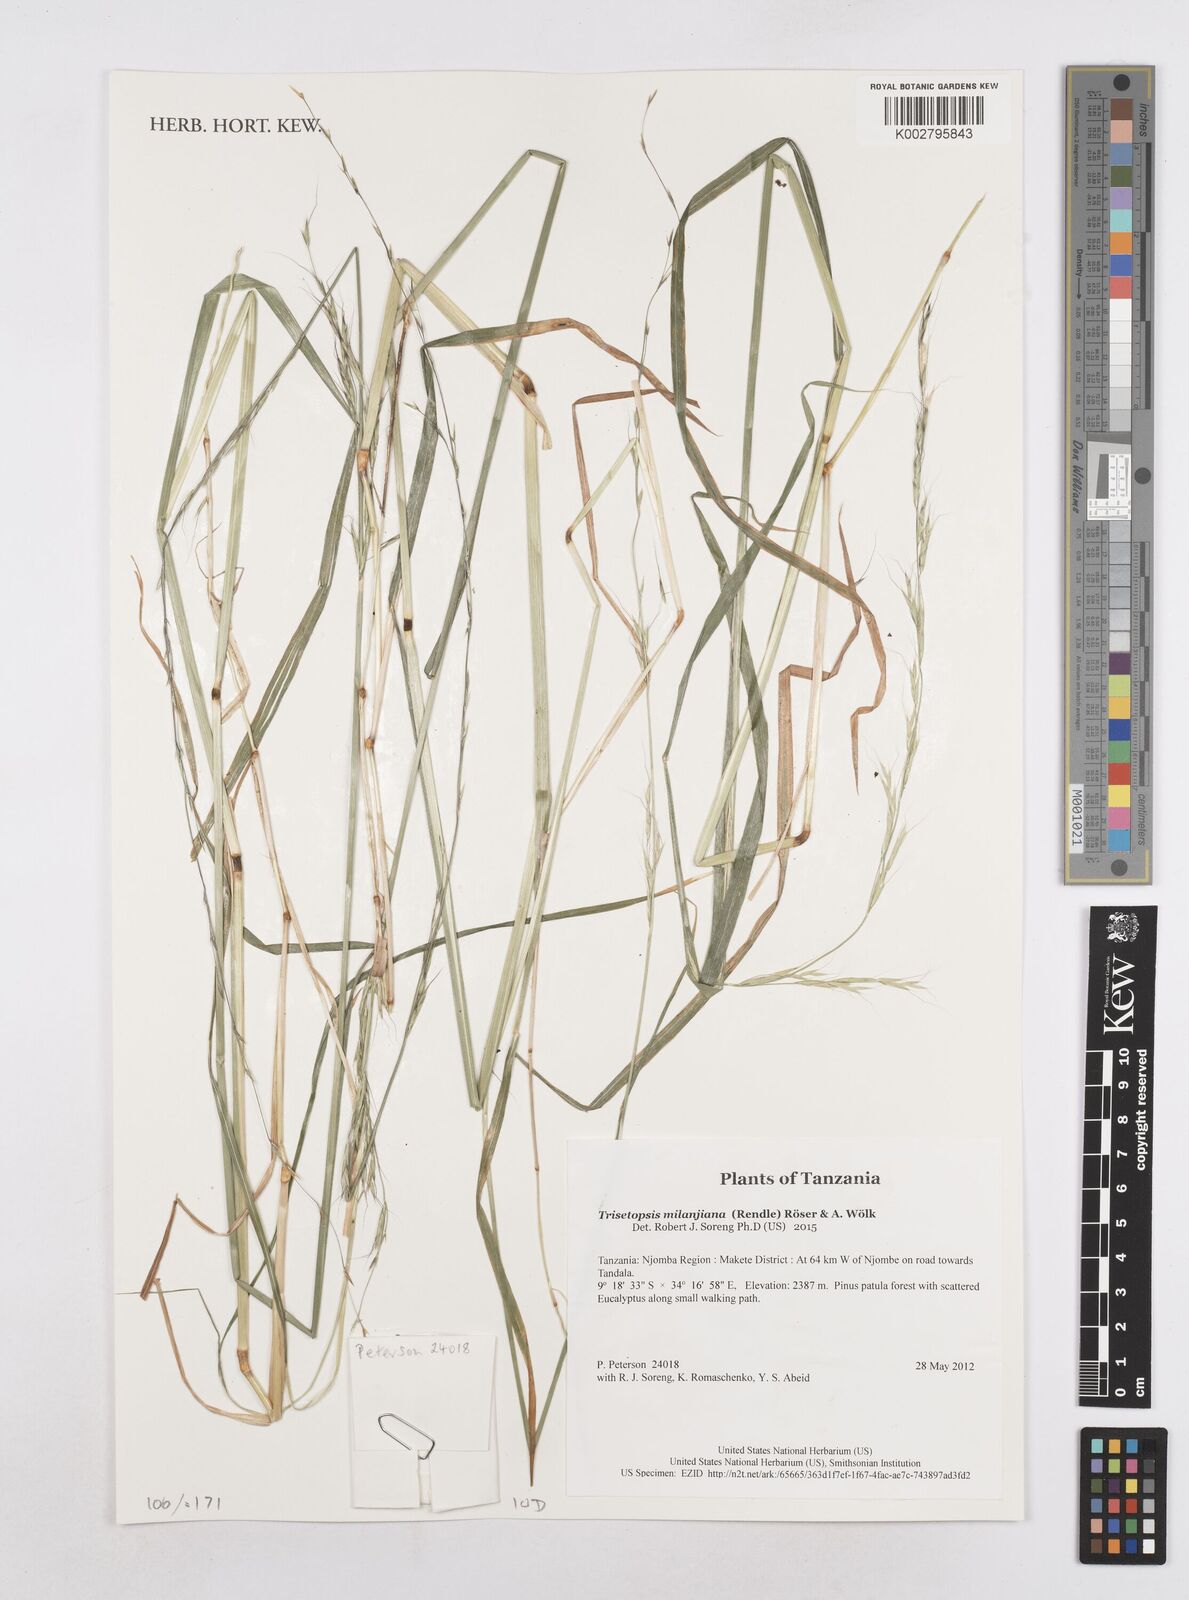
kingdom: Plantae
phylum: Tracheophyta
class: Liliopsida
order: Poales
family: Poaceae
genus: Trisetopsis
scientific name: Trisetopsis milanjiana
